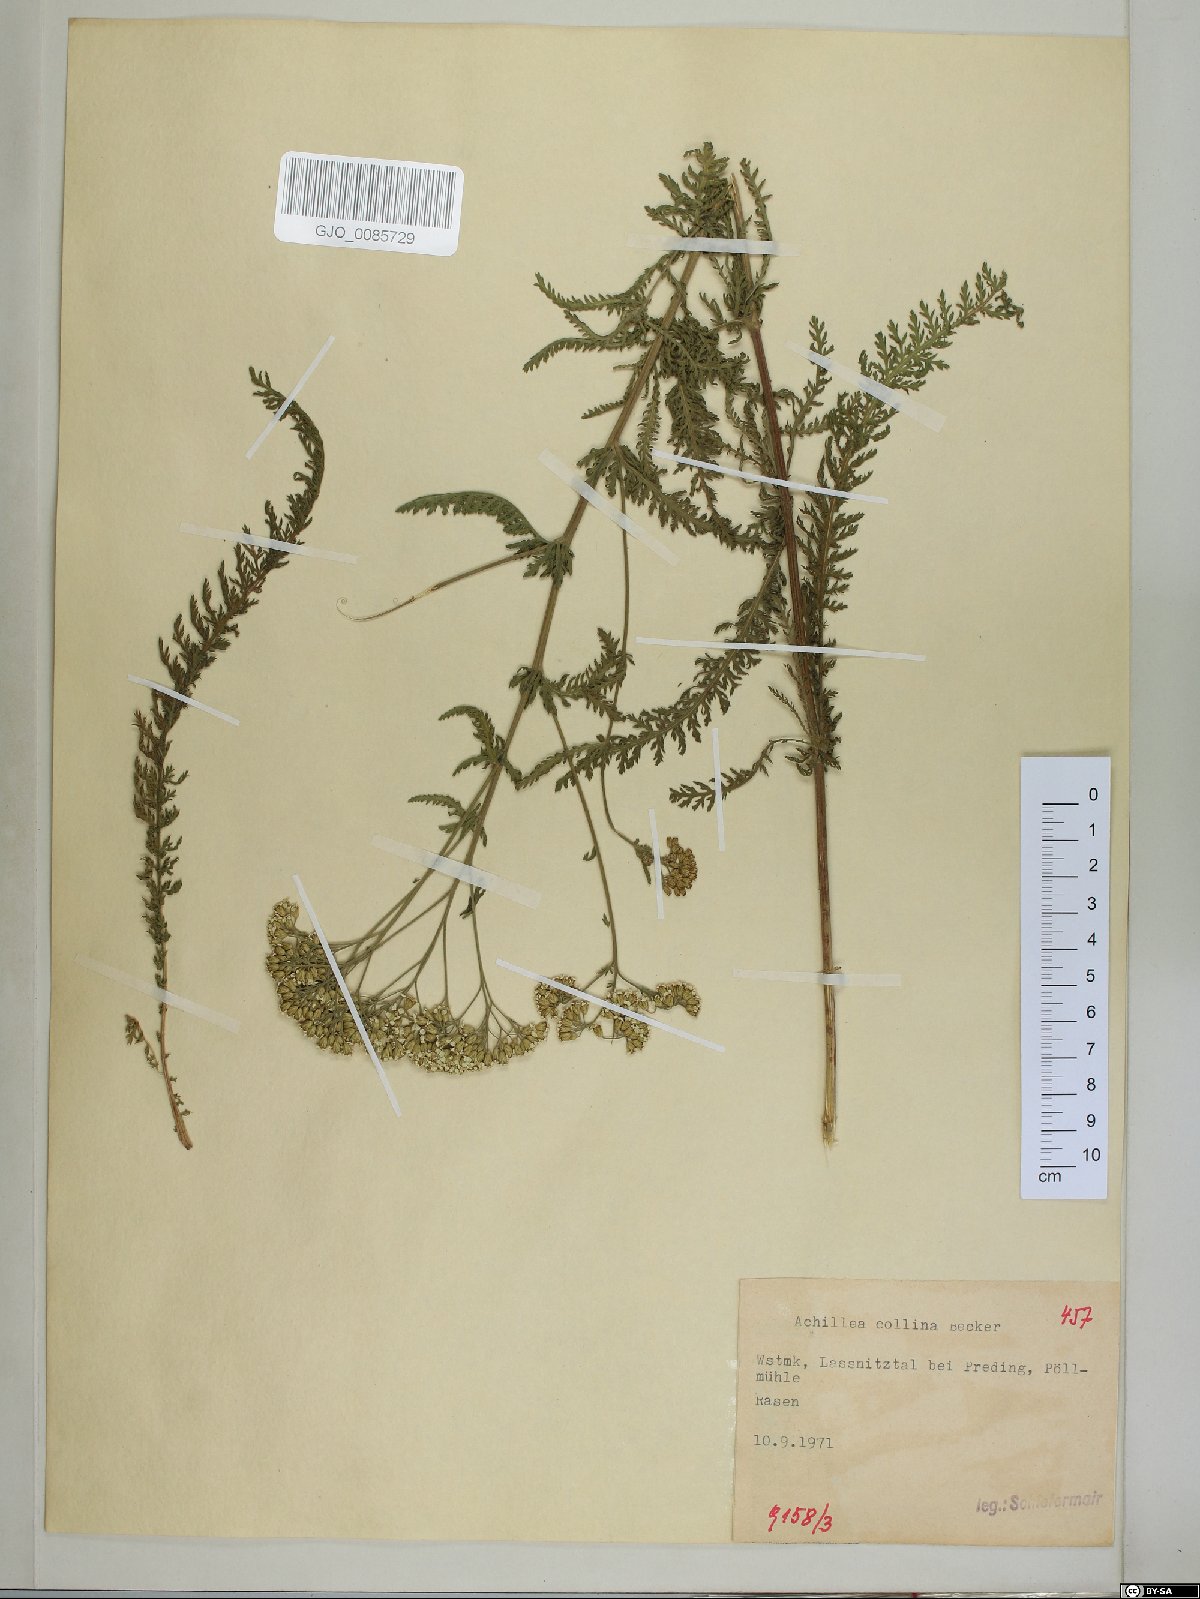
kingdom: Plantae
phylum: Tracheophyta
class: Magnoliopsida
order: Asterales
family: Asteraceae
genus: Achillea
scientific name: Achillea collina
